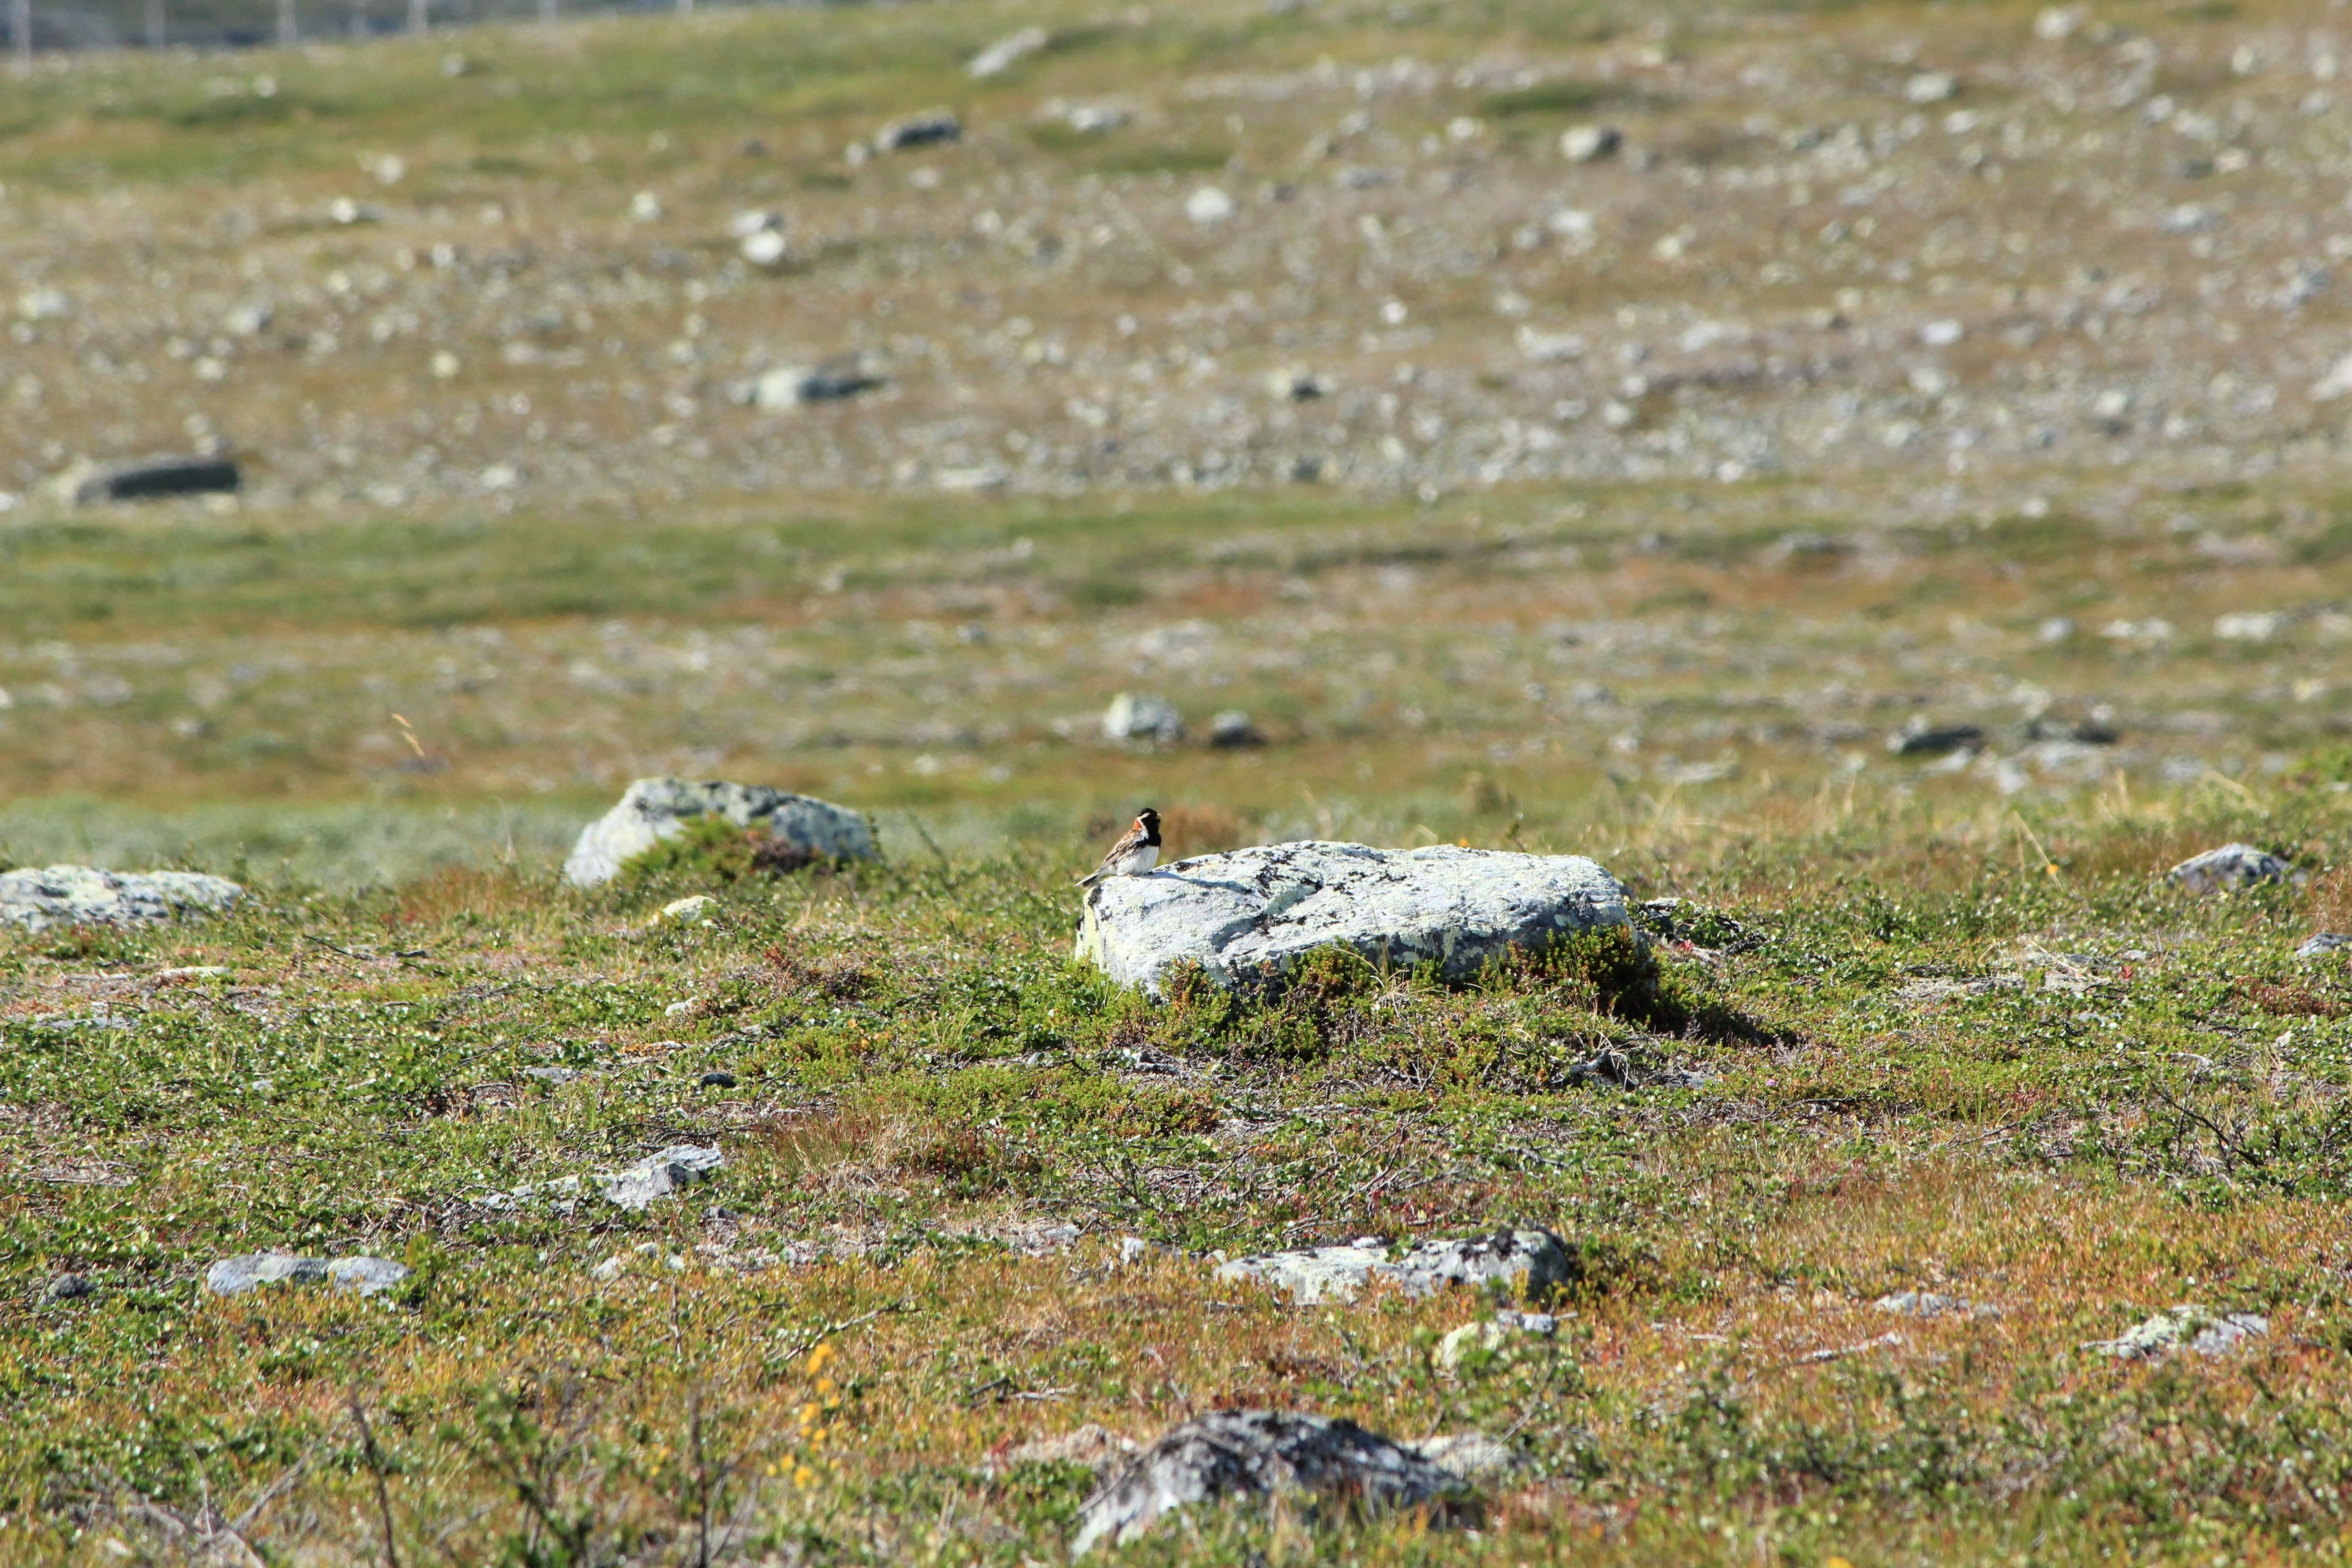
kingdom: Animalia
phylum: Chordata
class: Aves
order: Passeriformes
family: Calcariidae
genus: Calcarius
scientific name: Calcarius lapponicus
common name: Lapland longspur
